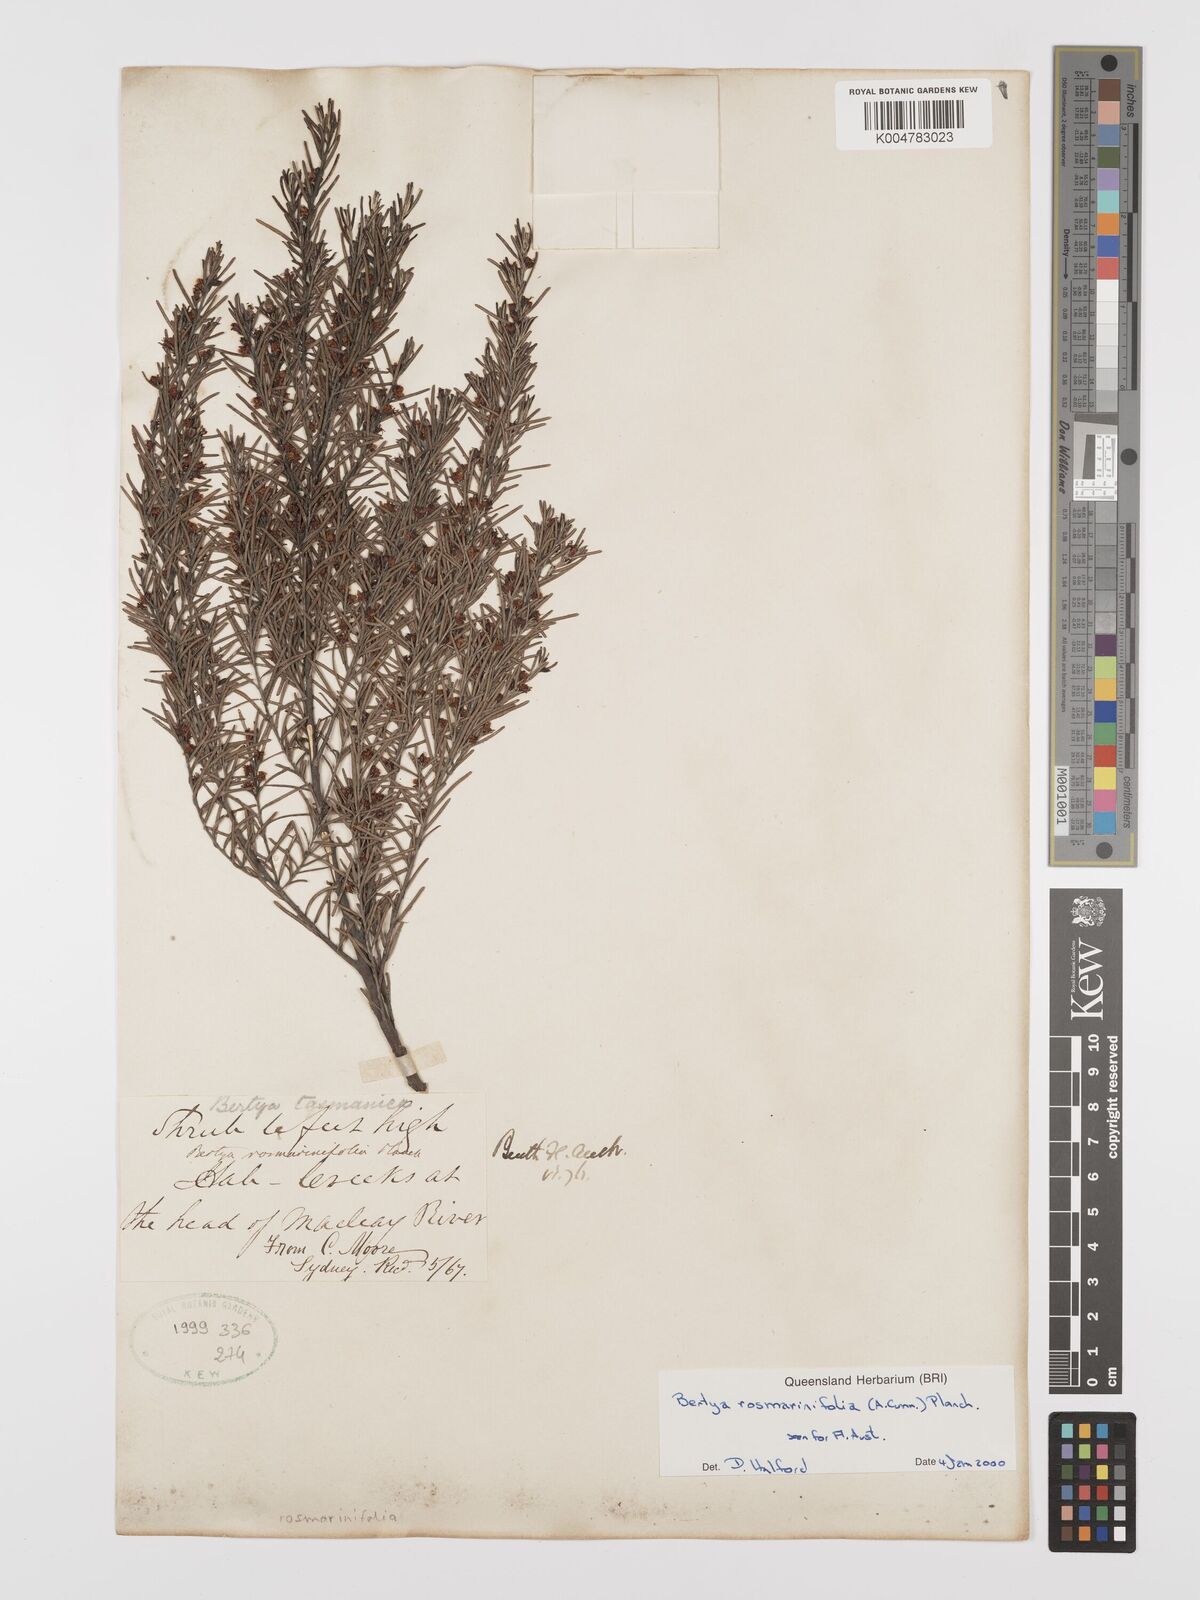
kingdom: Plantae
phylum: Tracheophyta
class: Magnoliopsida
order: Malpighiales
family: Euphorbiaceae
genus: Bertya
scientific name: Bertya rosmarinifolia
